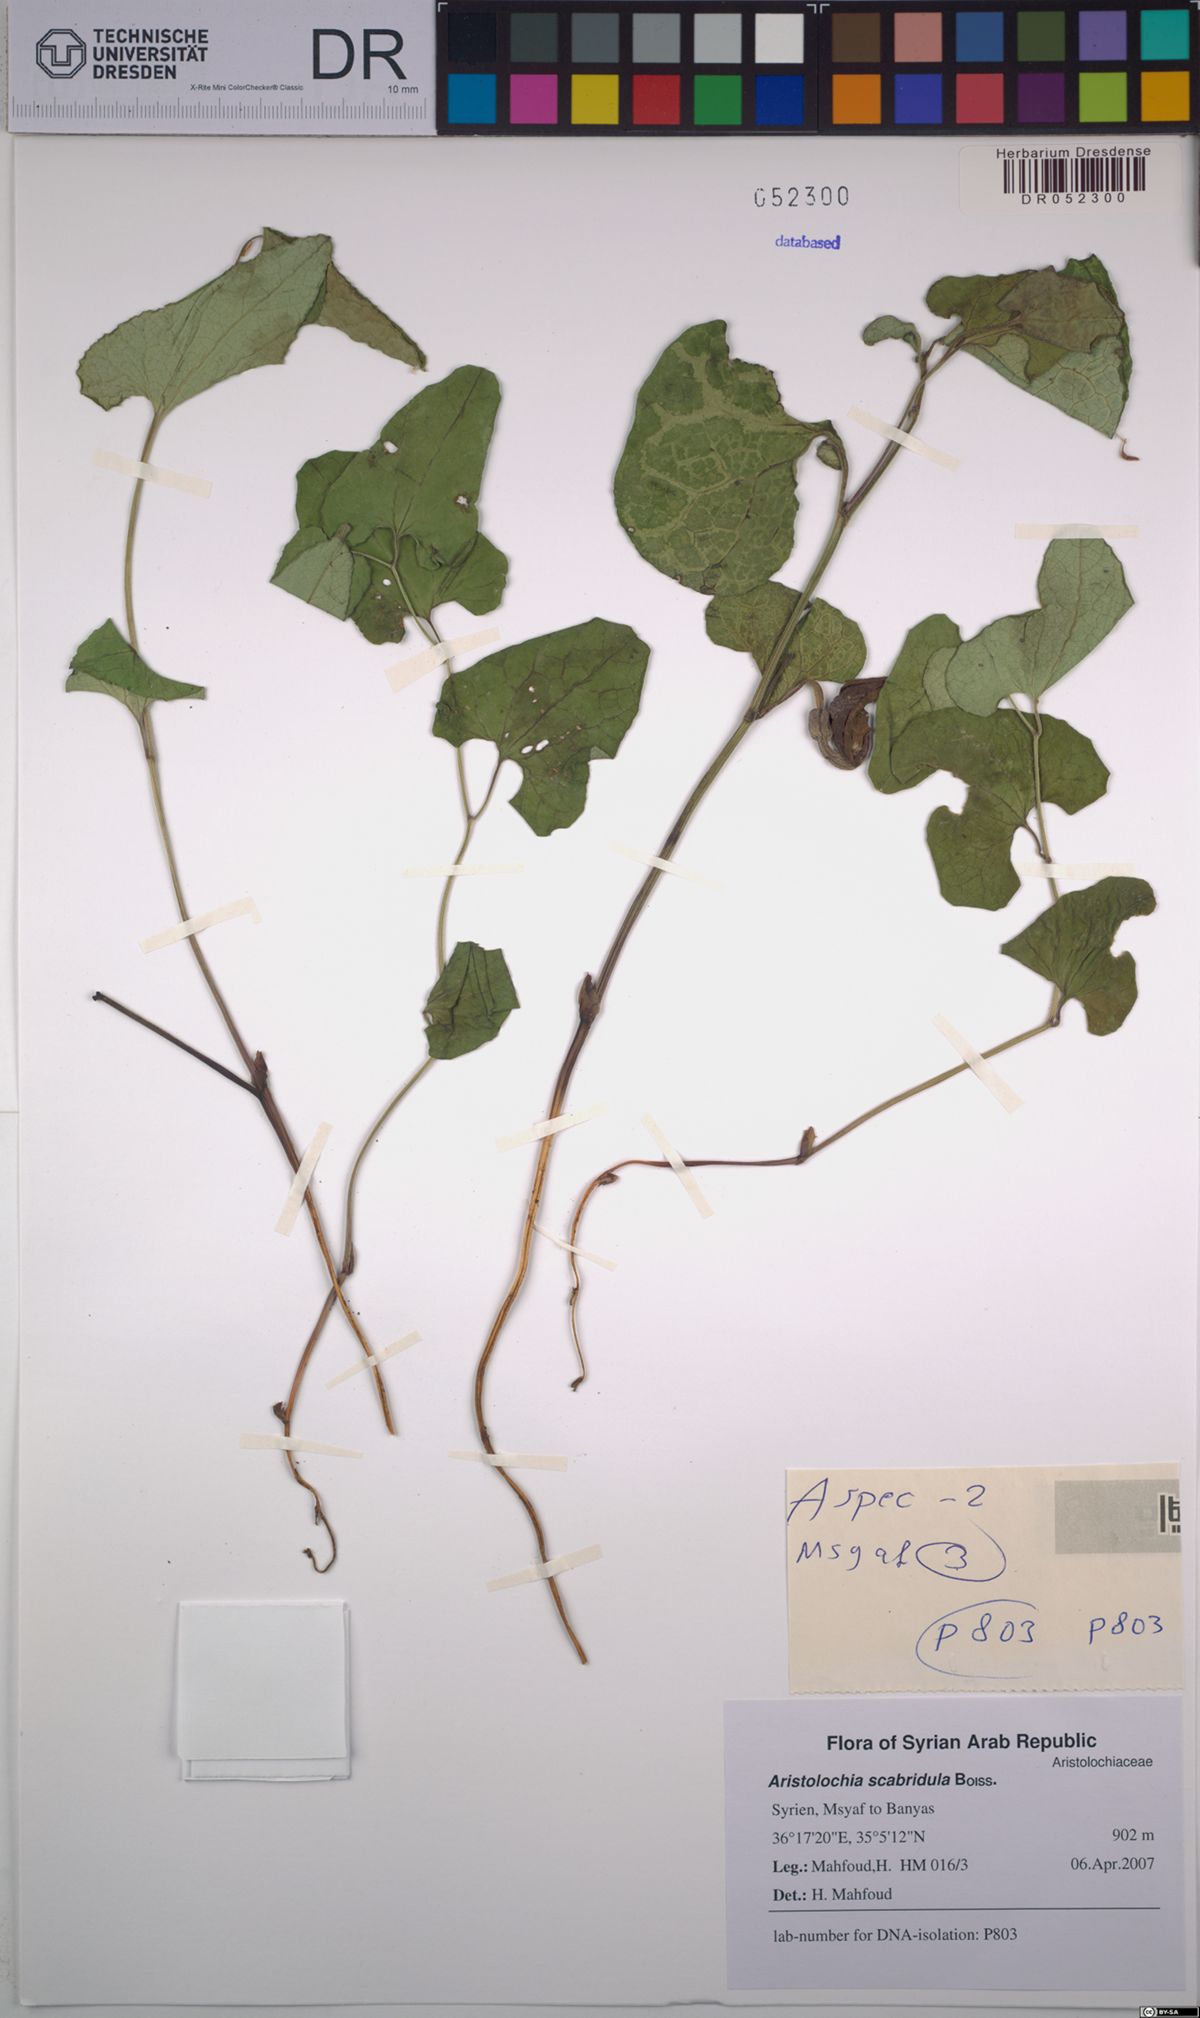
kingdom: Plantae
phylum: Tracheophyta
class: Magnoliopsida
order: Piperales
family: Aristolochiaceae
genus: Aristolochia
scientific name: Aristolochia paecilantha
